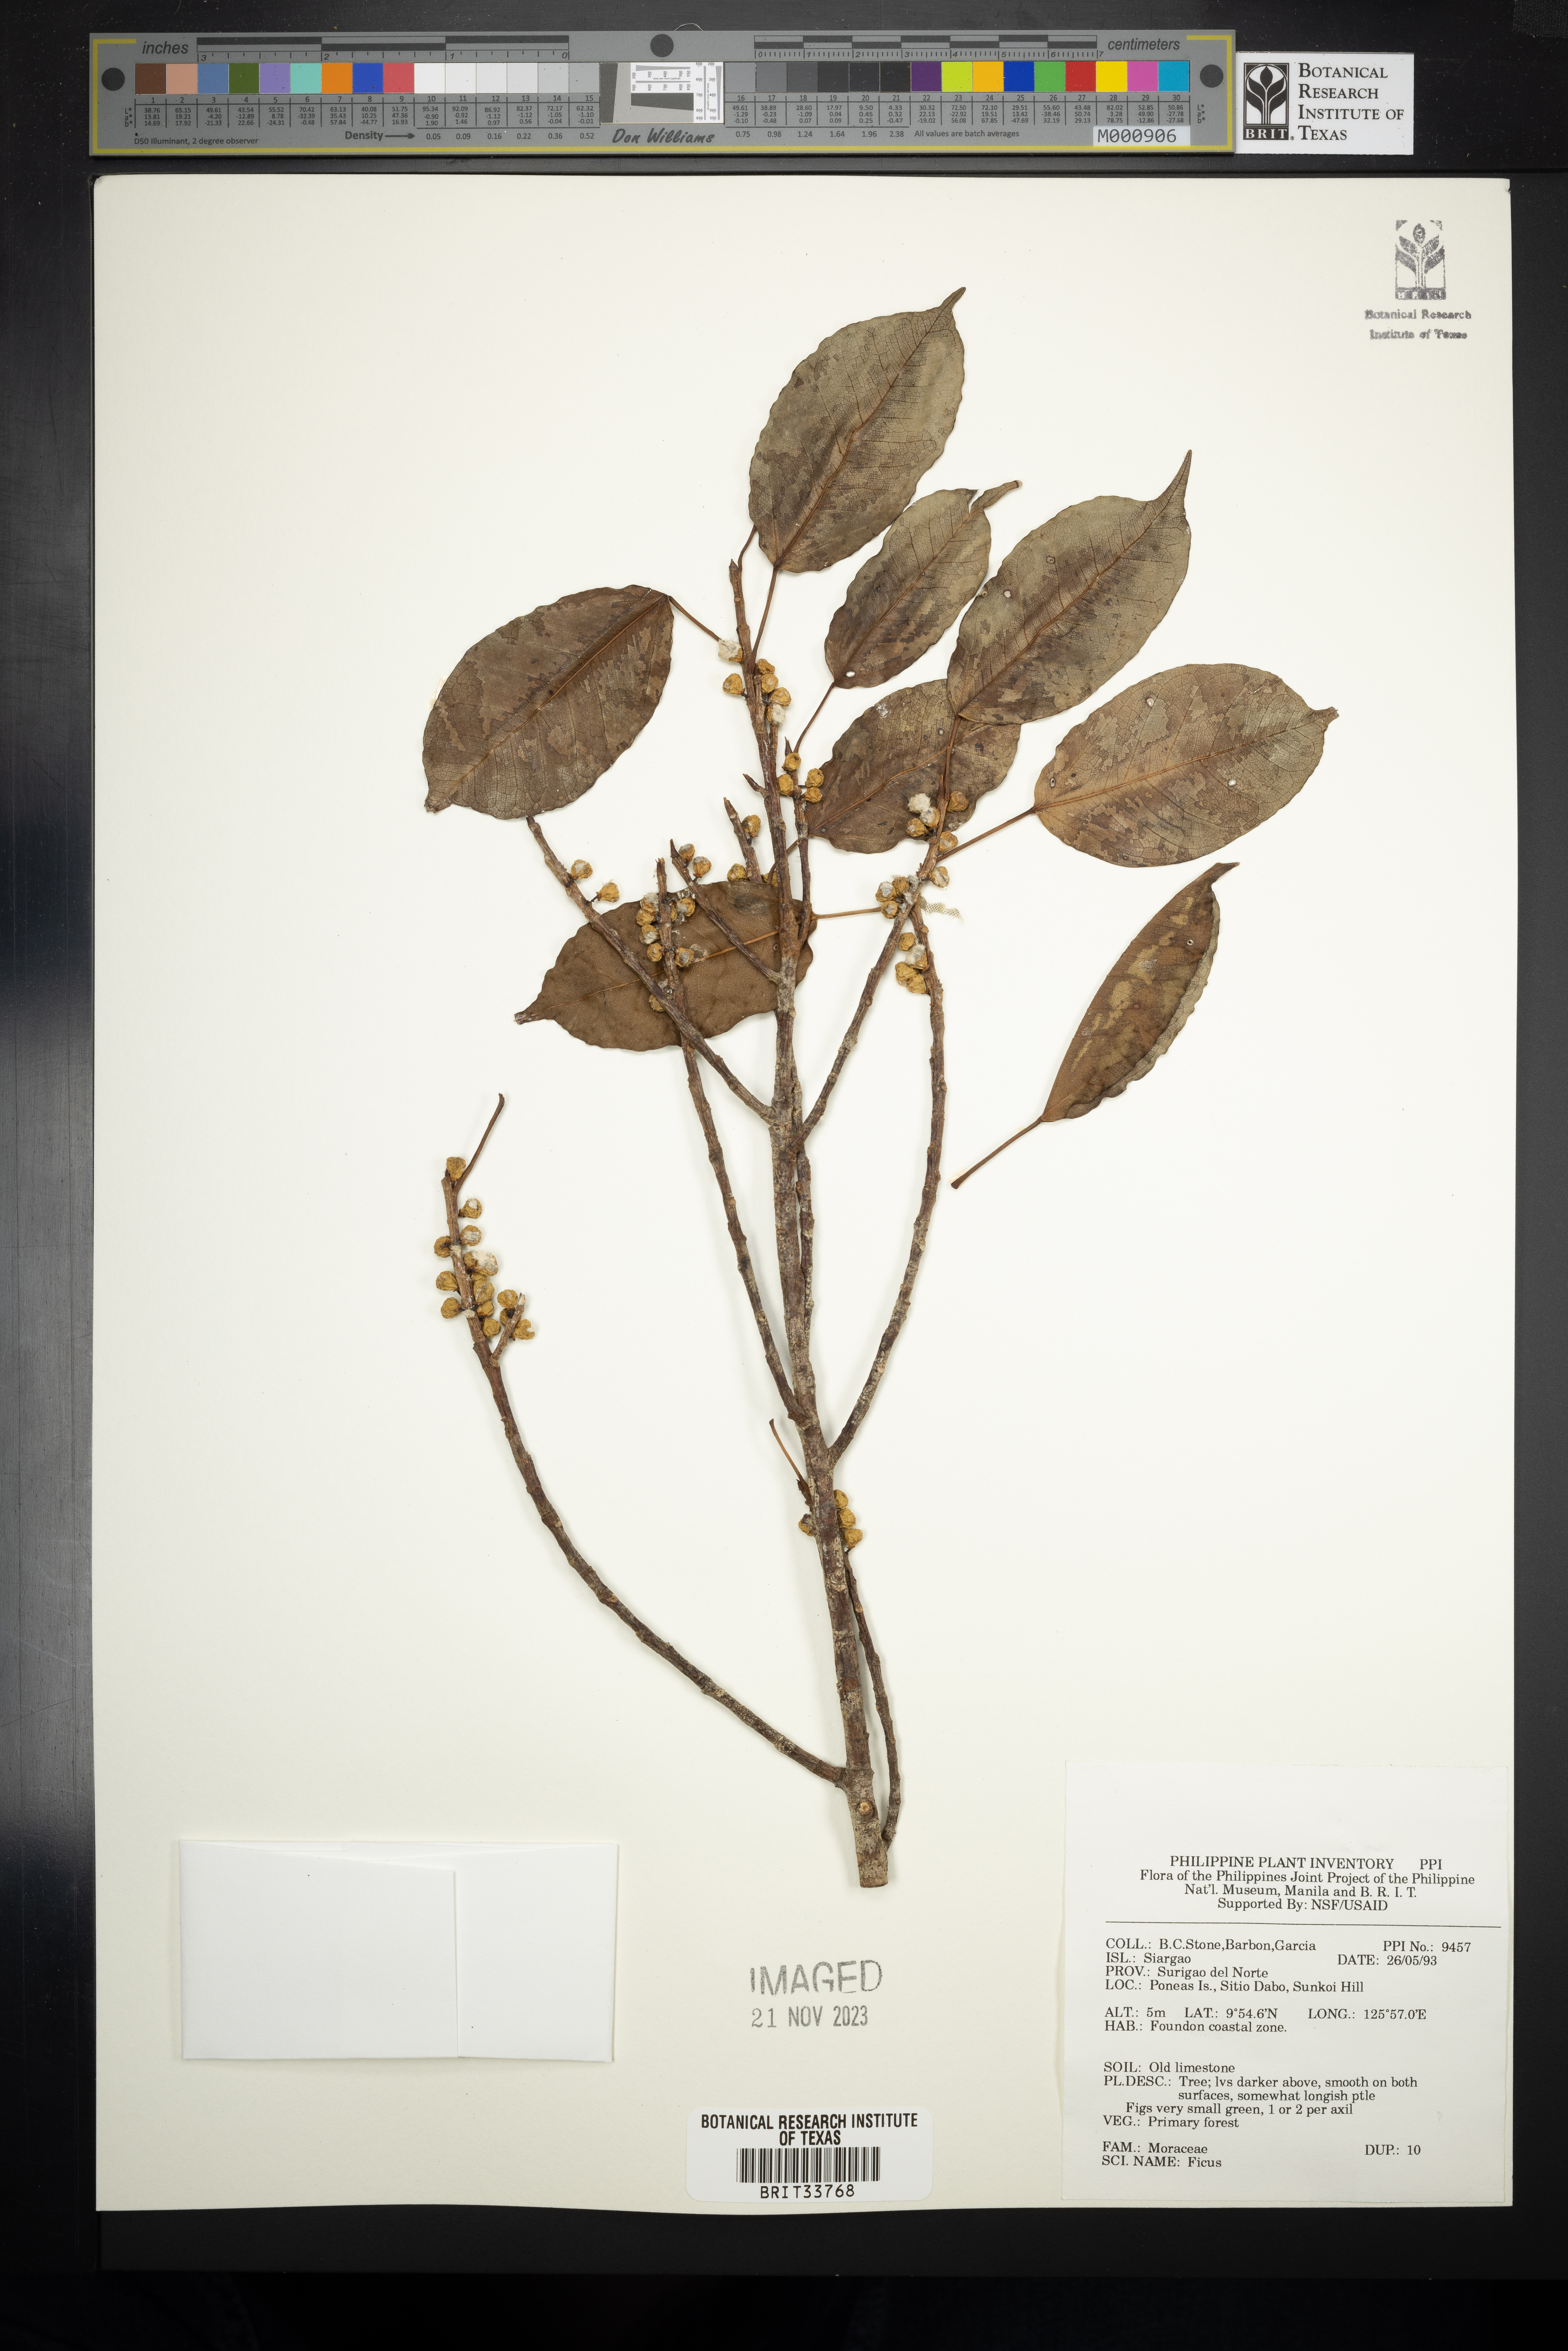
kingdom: Plantae
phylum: Tracheophyta
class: Magnoliopsida
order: Rosales
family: Moraceae
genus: Ficus
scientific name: Ficus
